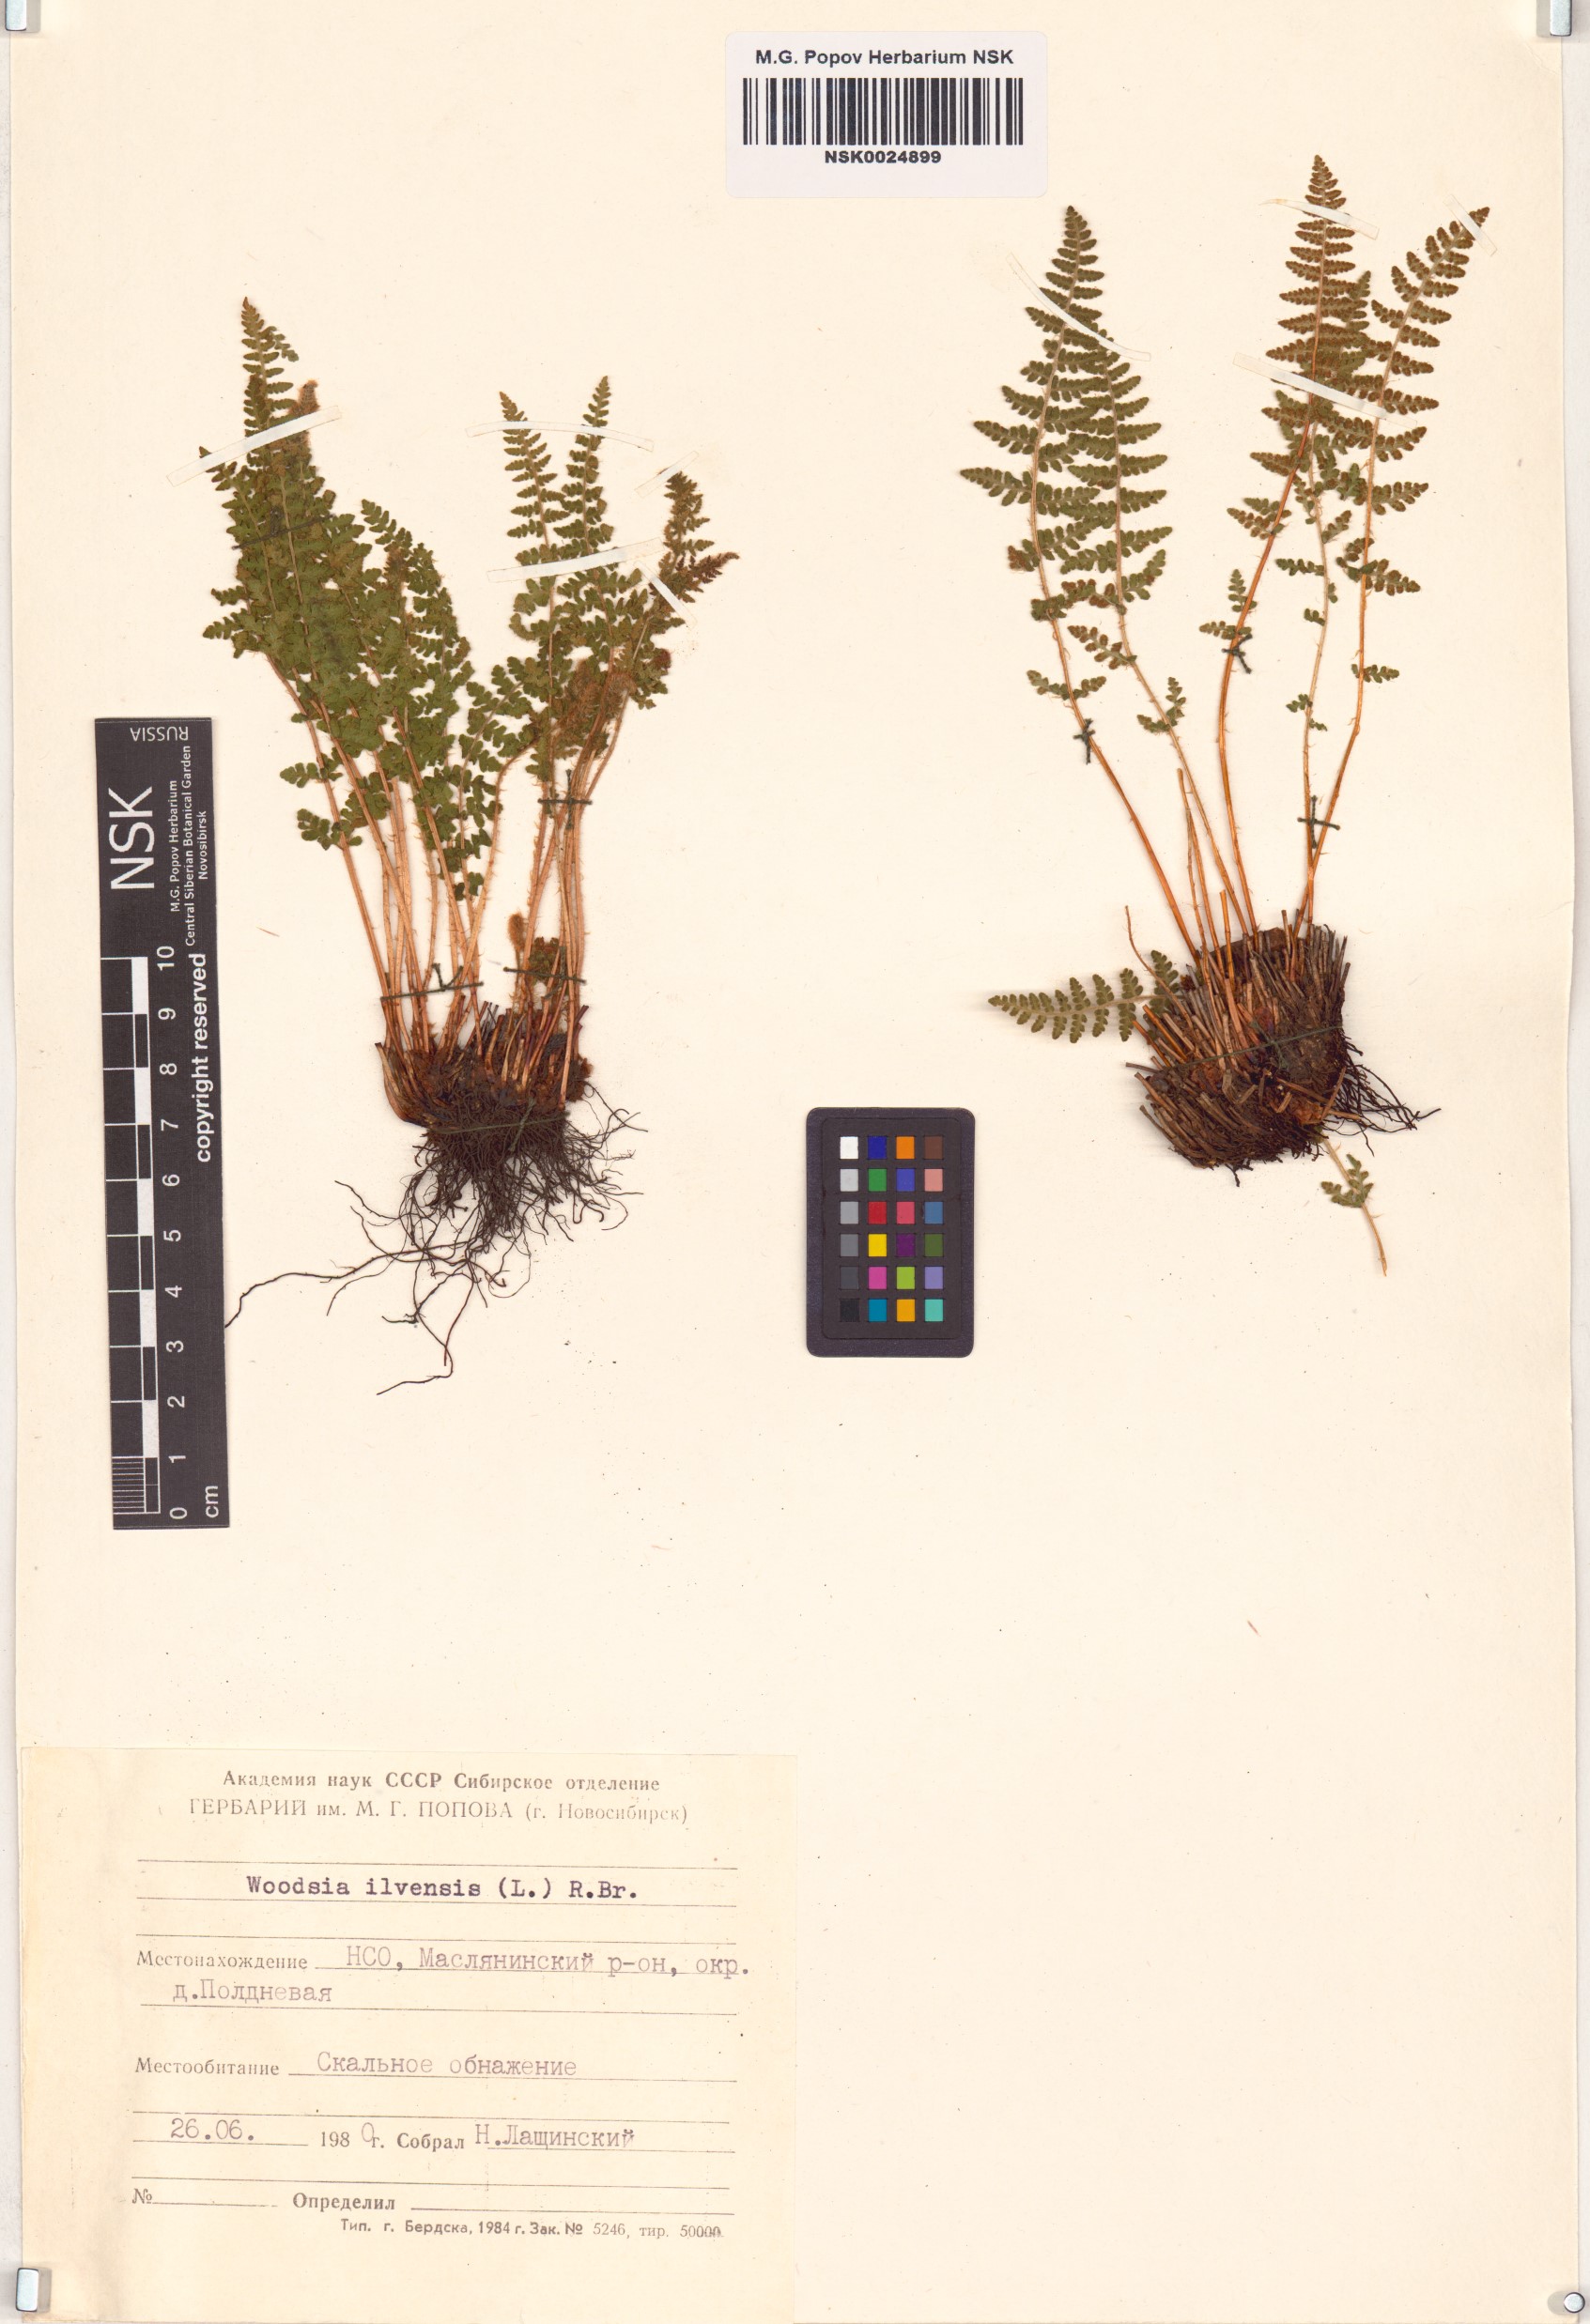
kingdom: Plantae
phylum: Tracheophyta
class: Polypodiopsida
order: Polypodiales
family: Woodsiaceae
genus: Woodsia
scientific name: Woodsia ilvensis
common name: Fragrant woodsia
